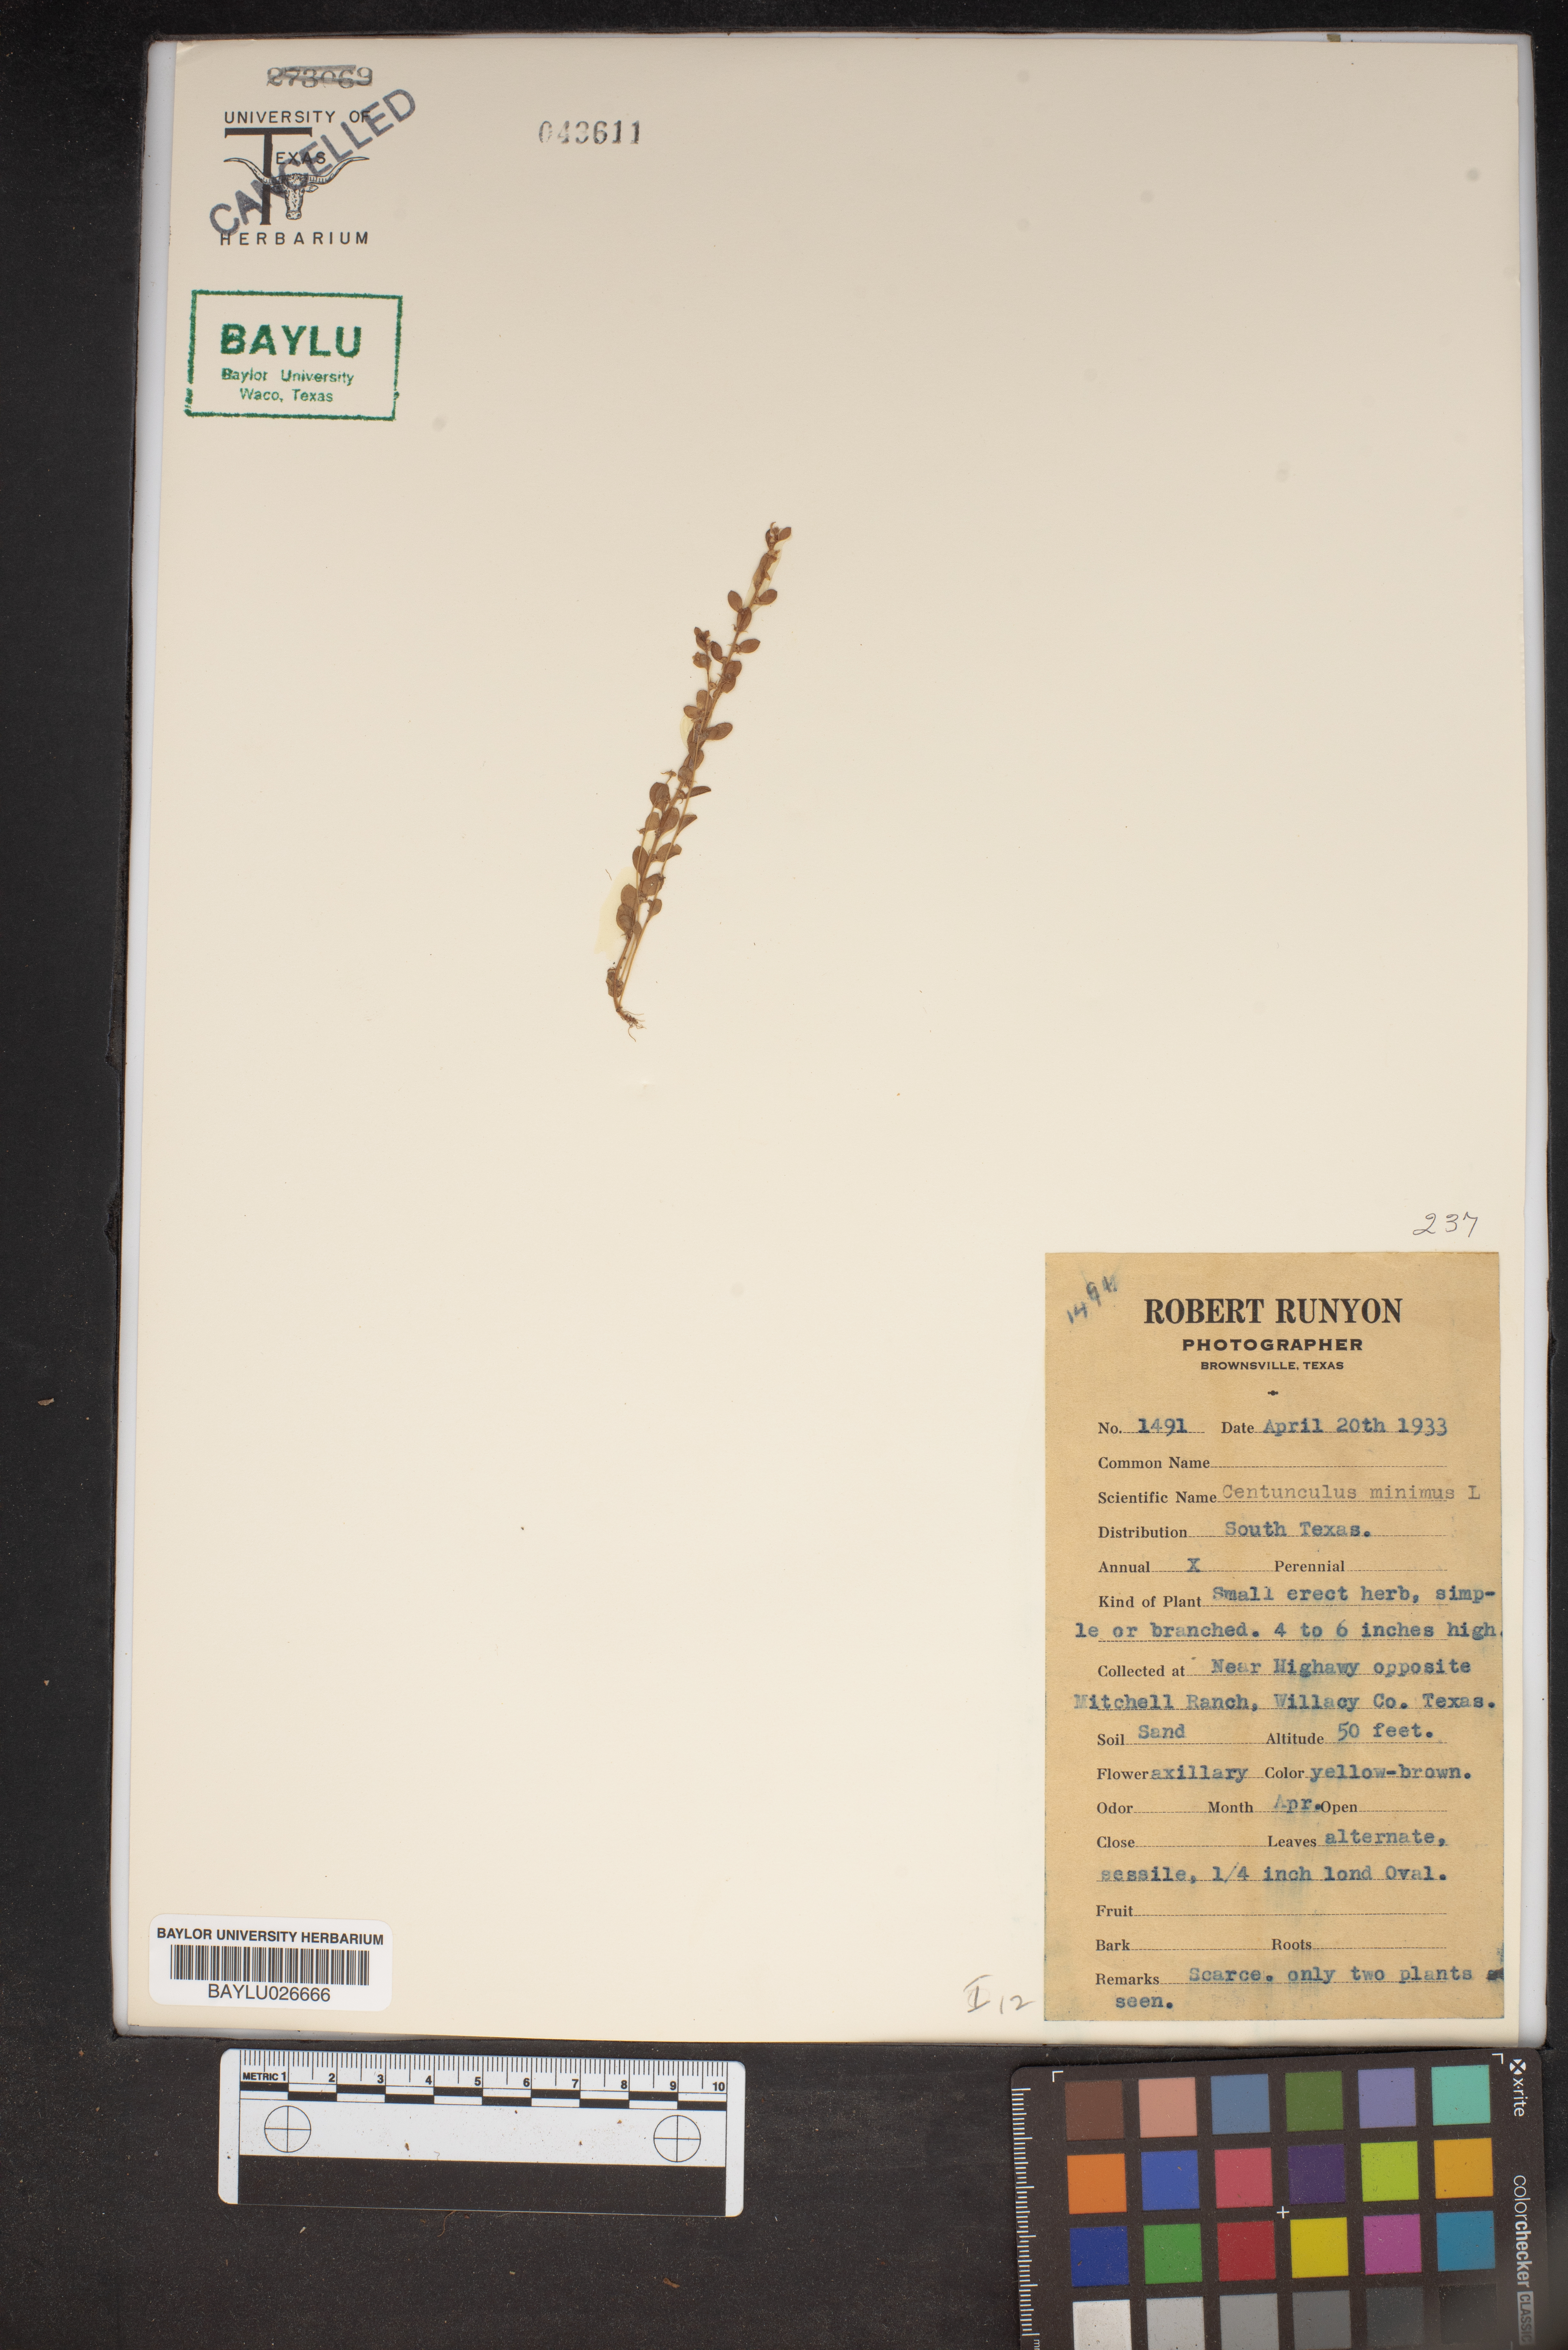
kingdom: Plantae
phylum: Tracheophyta
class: Magnoliopsida
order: Ericales
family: Primulaceae
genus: Lysimachia
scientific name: Lysimachia minima
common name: Chaffweed
